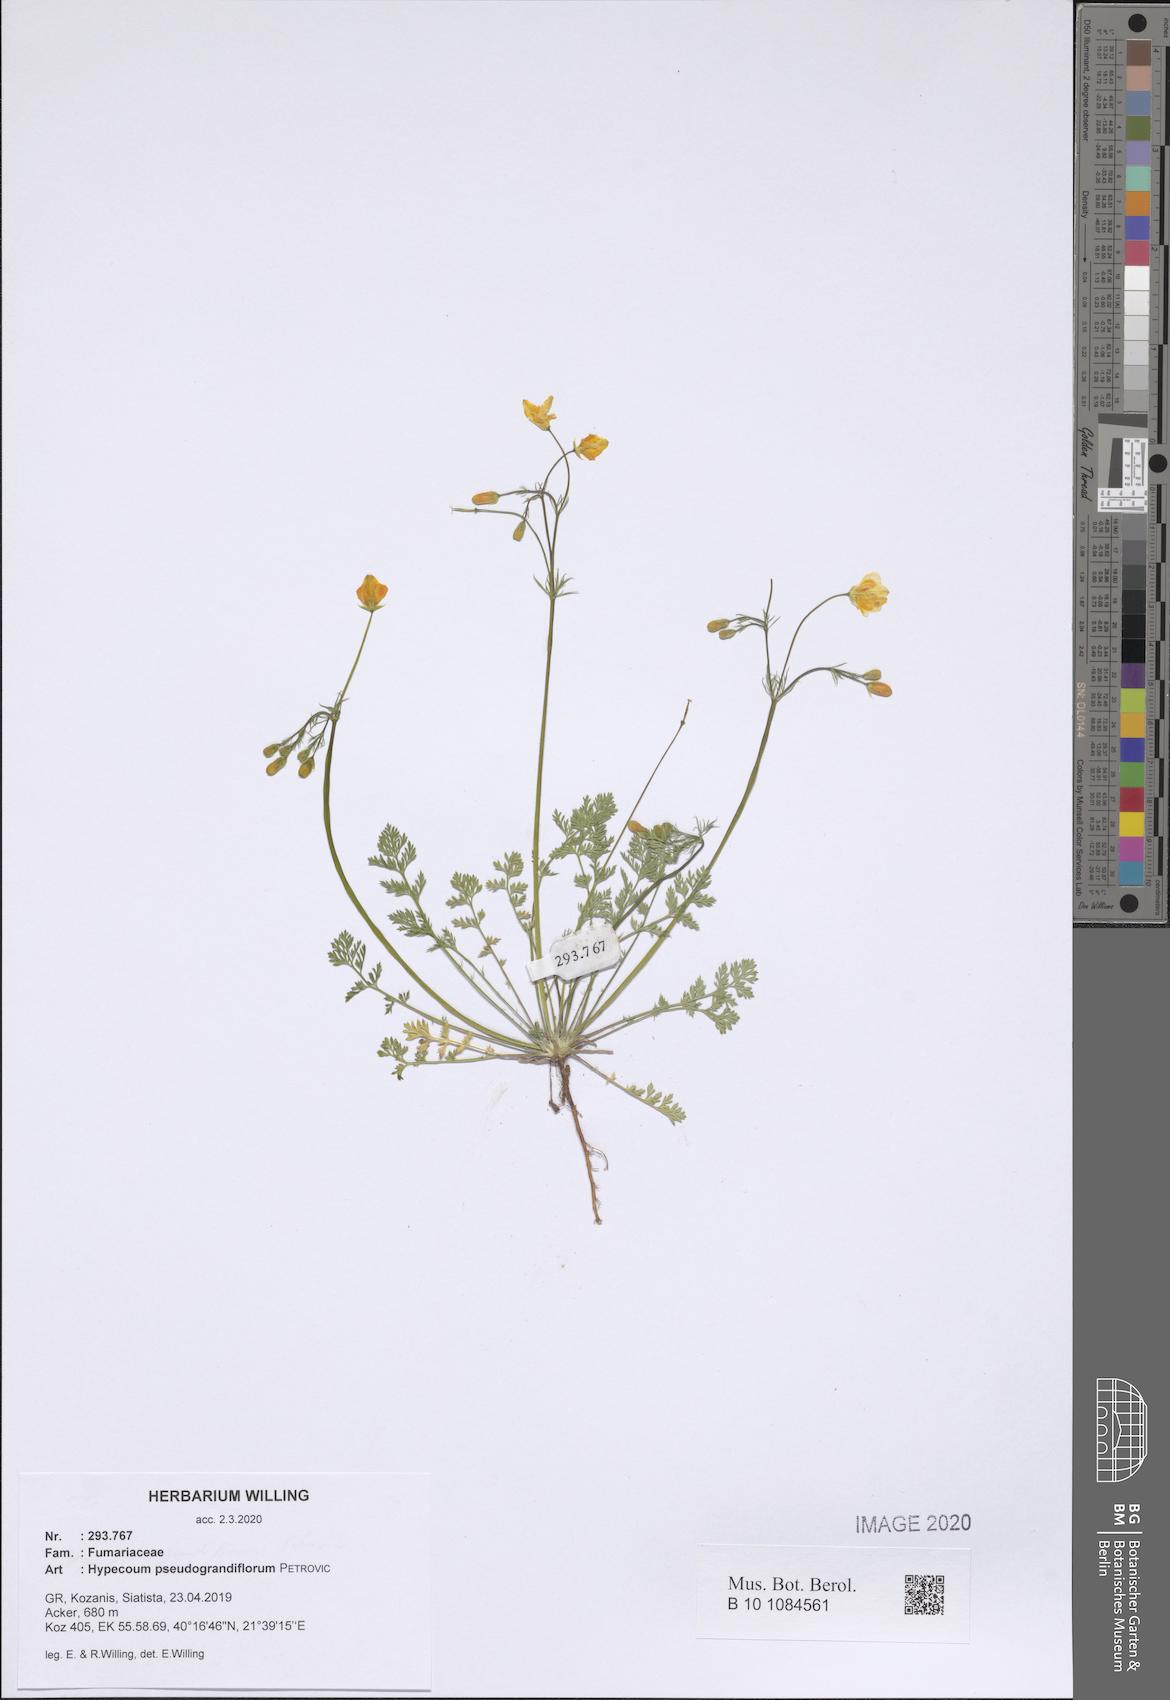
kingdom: Plantae
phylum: Tracheophyta
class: Magnoliopsida
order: Ranunculales
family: Papaveraceae
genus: Hypecoum
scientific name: Hypecoum pseudograndiflorum
